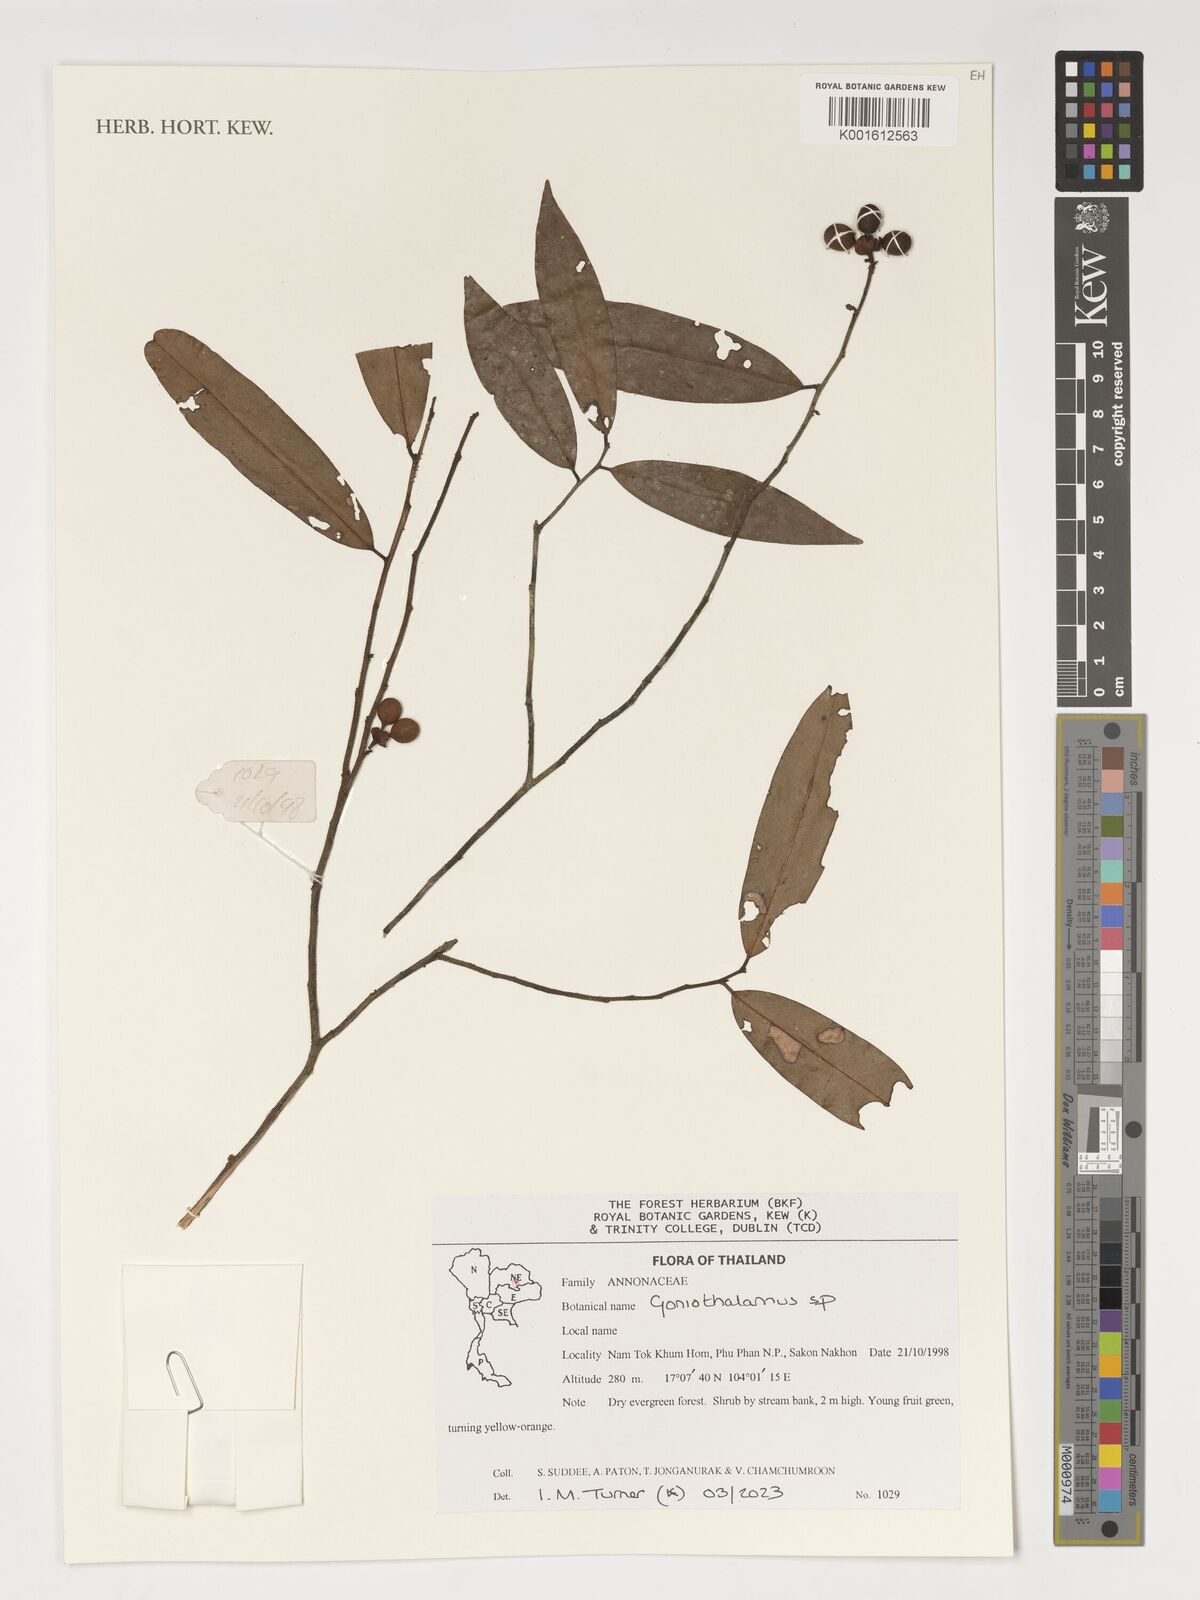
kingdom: Plantae
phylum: Tracheophyta
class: Magnoliopsida
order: Magnoliales
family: Annonaceae
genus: Goniothalamus
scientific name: Goniothalamus
